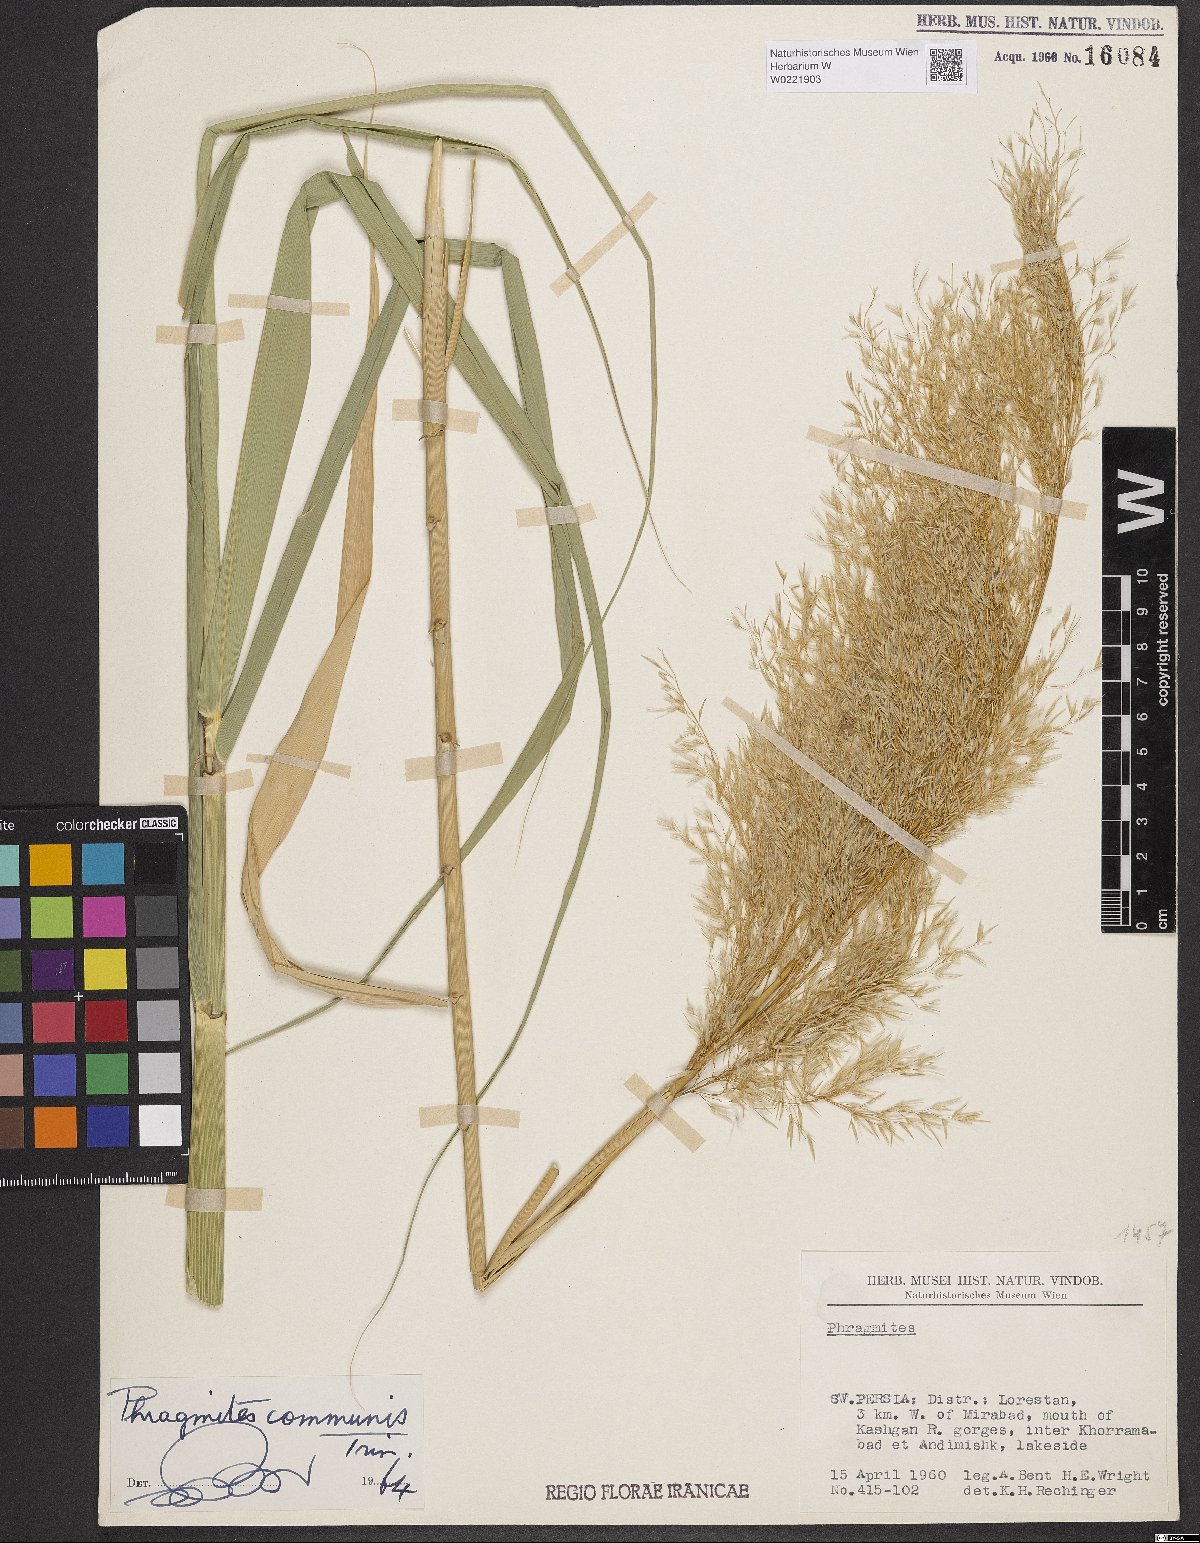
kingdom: Plantae
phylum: Tracheophyta
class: Liliopsida
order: Poales
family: Poaceae
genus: Phragmites
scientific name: Phragmites australis
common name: Common reed
